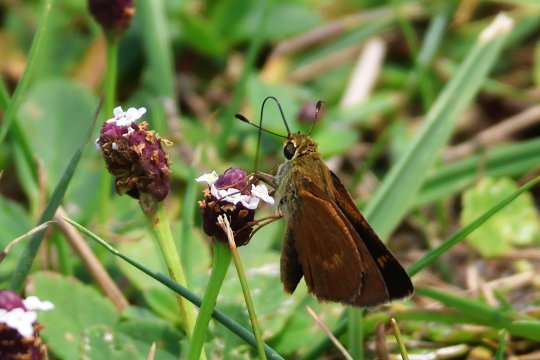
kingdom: Animalia
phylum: Arthropoda
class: Insecta
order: Lepidoptera
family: Hesperiidae
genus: Wallengrenia
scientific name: Wallengrenia otho
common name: Southern Broken-Dash
